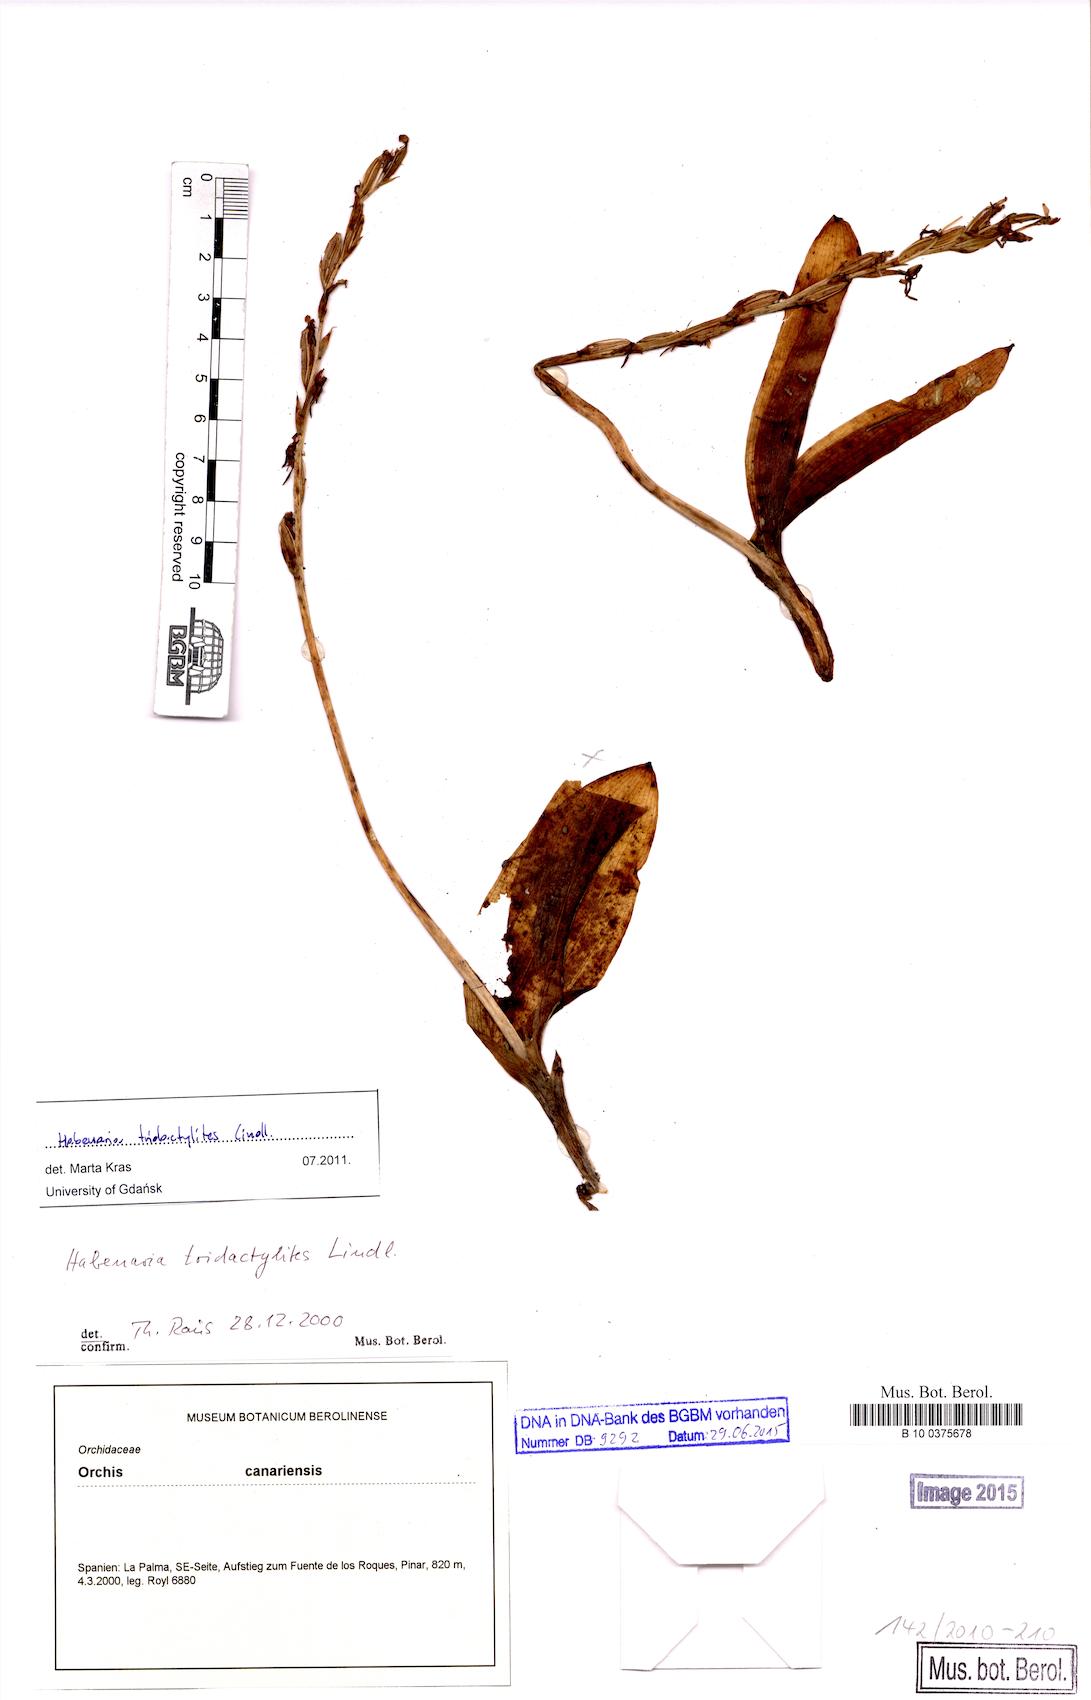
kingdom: Plantae
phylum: Tracheophyta
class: Liliopsida
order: Asparagales
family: Orchidaceae
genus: Habenaria
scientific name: Habenaria tridactylites
